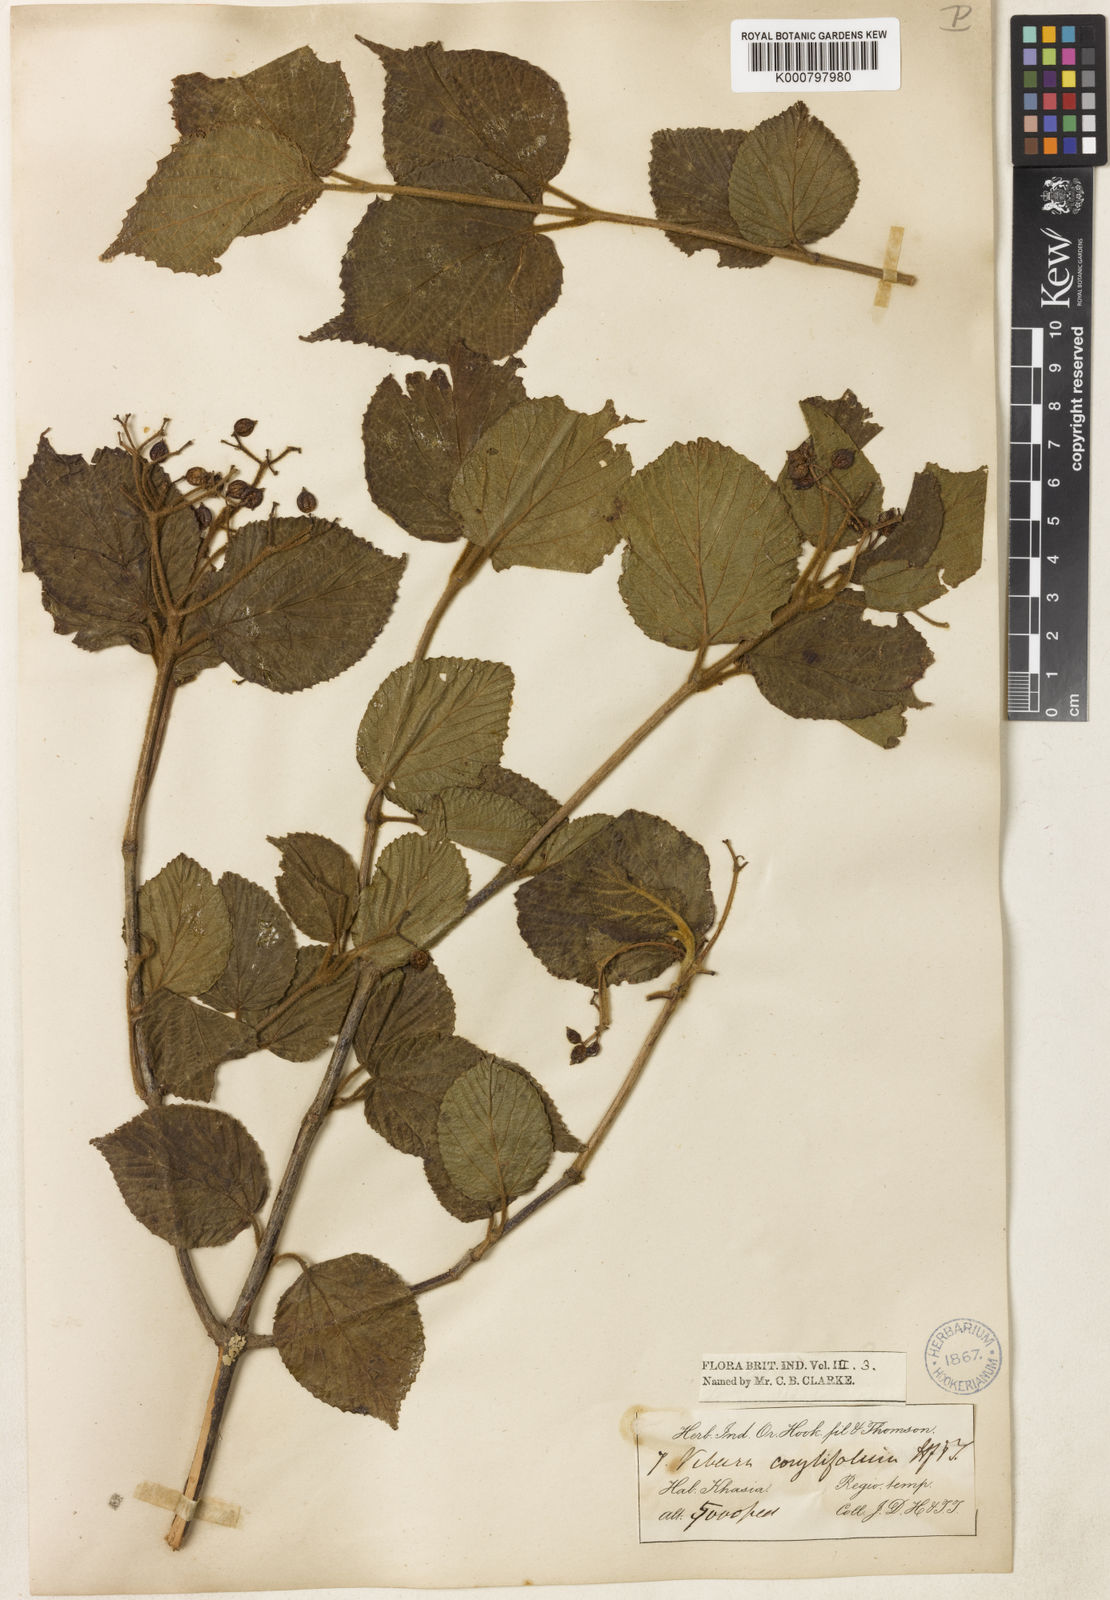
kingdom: Plantae
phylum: Tracheophyta
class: Magnoliopsida
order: Dipsacales
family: Viburnaceae
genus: Viburnum
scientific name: Viburnum corylifolium
